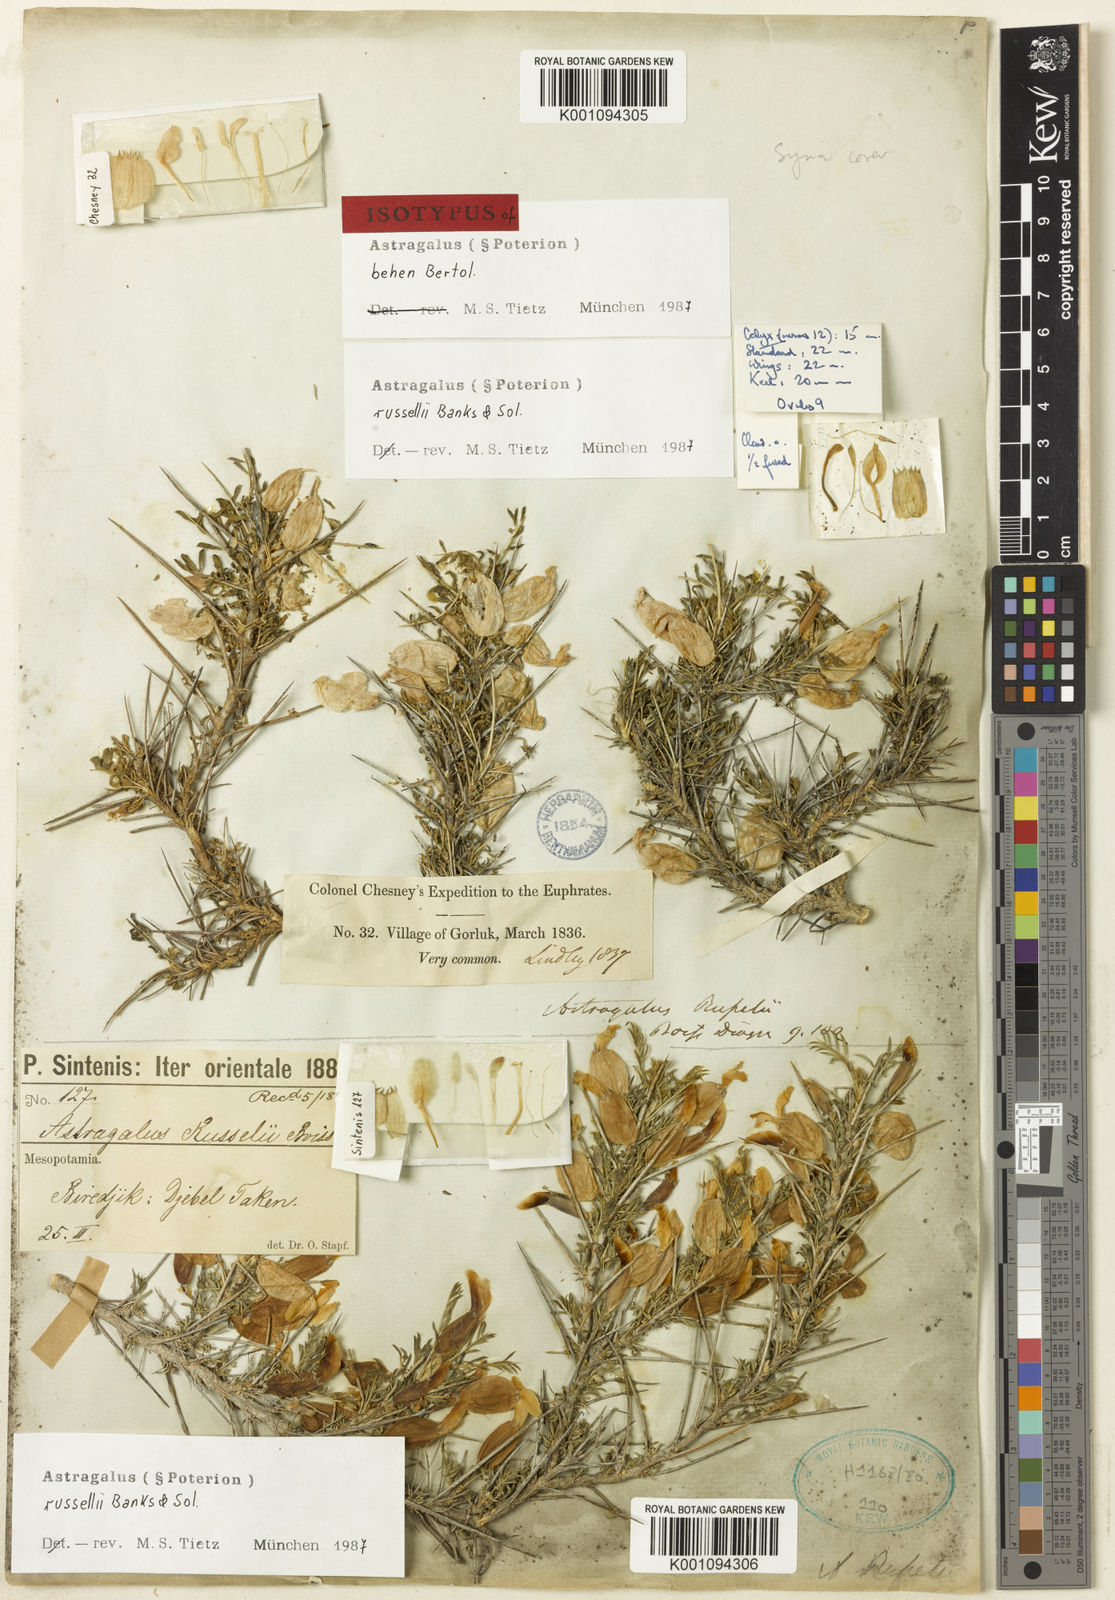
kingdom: Plantae
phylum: Tracheophyta
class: Magnoliopsida
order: Fabales
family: Fabaceae
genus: Astragalus
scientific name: Astragalus
